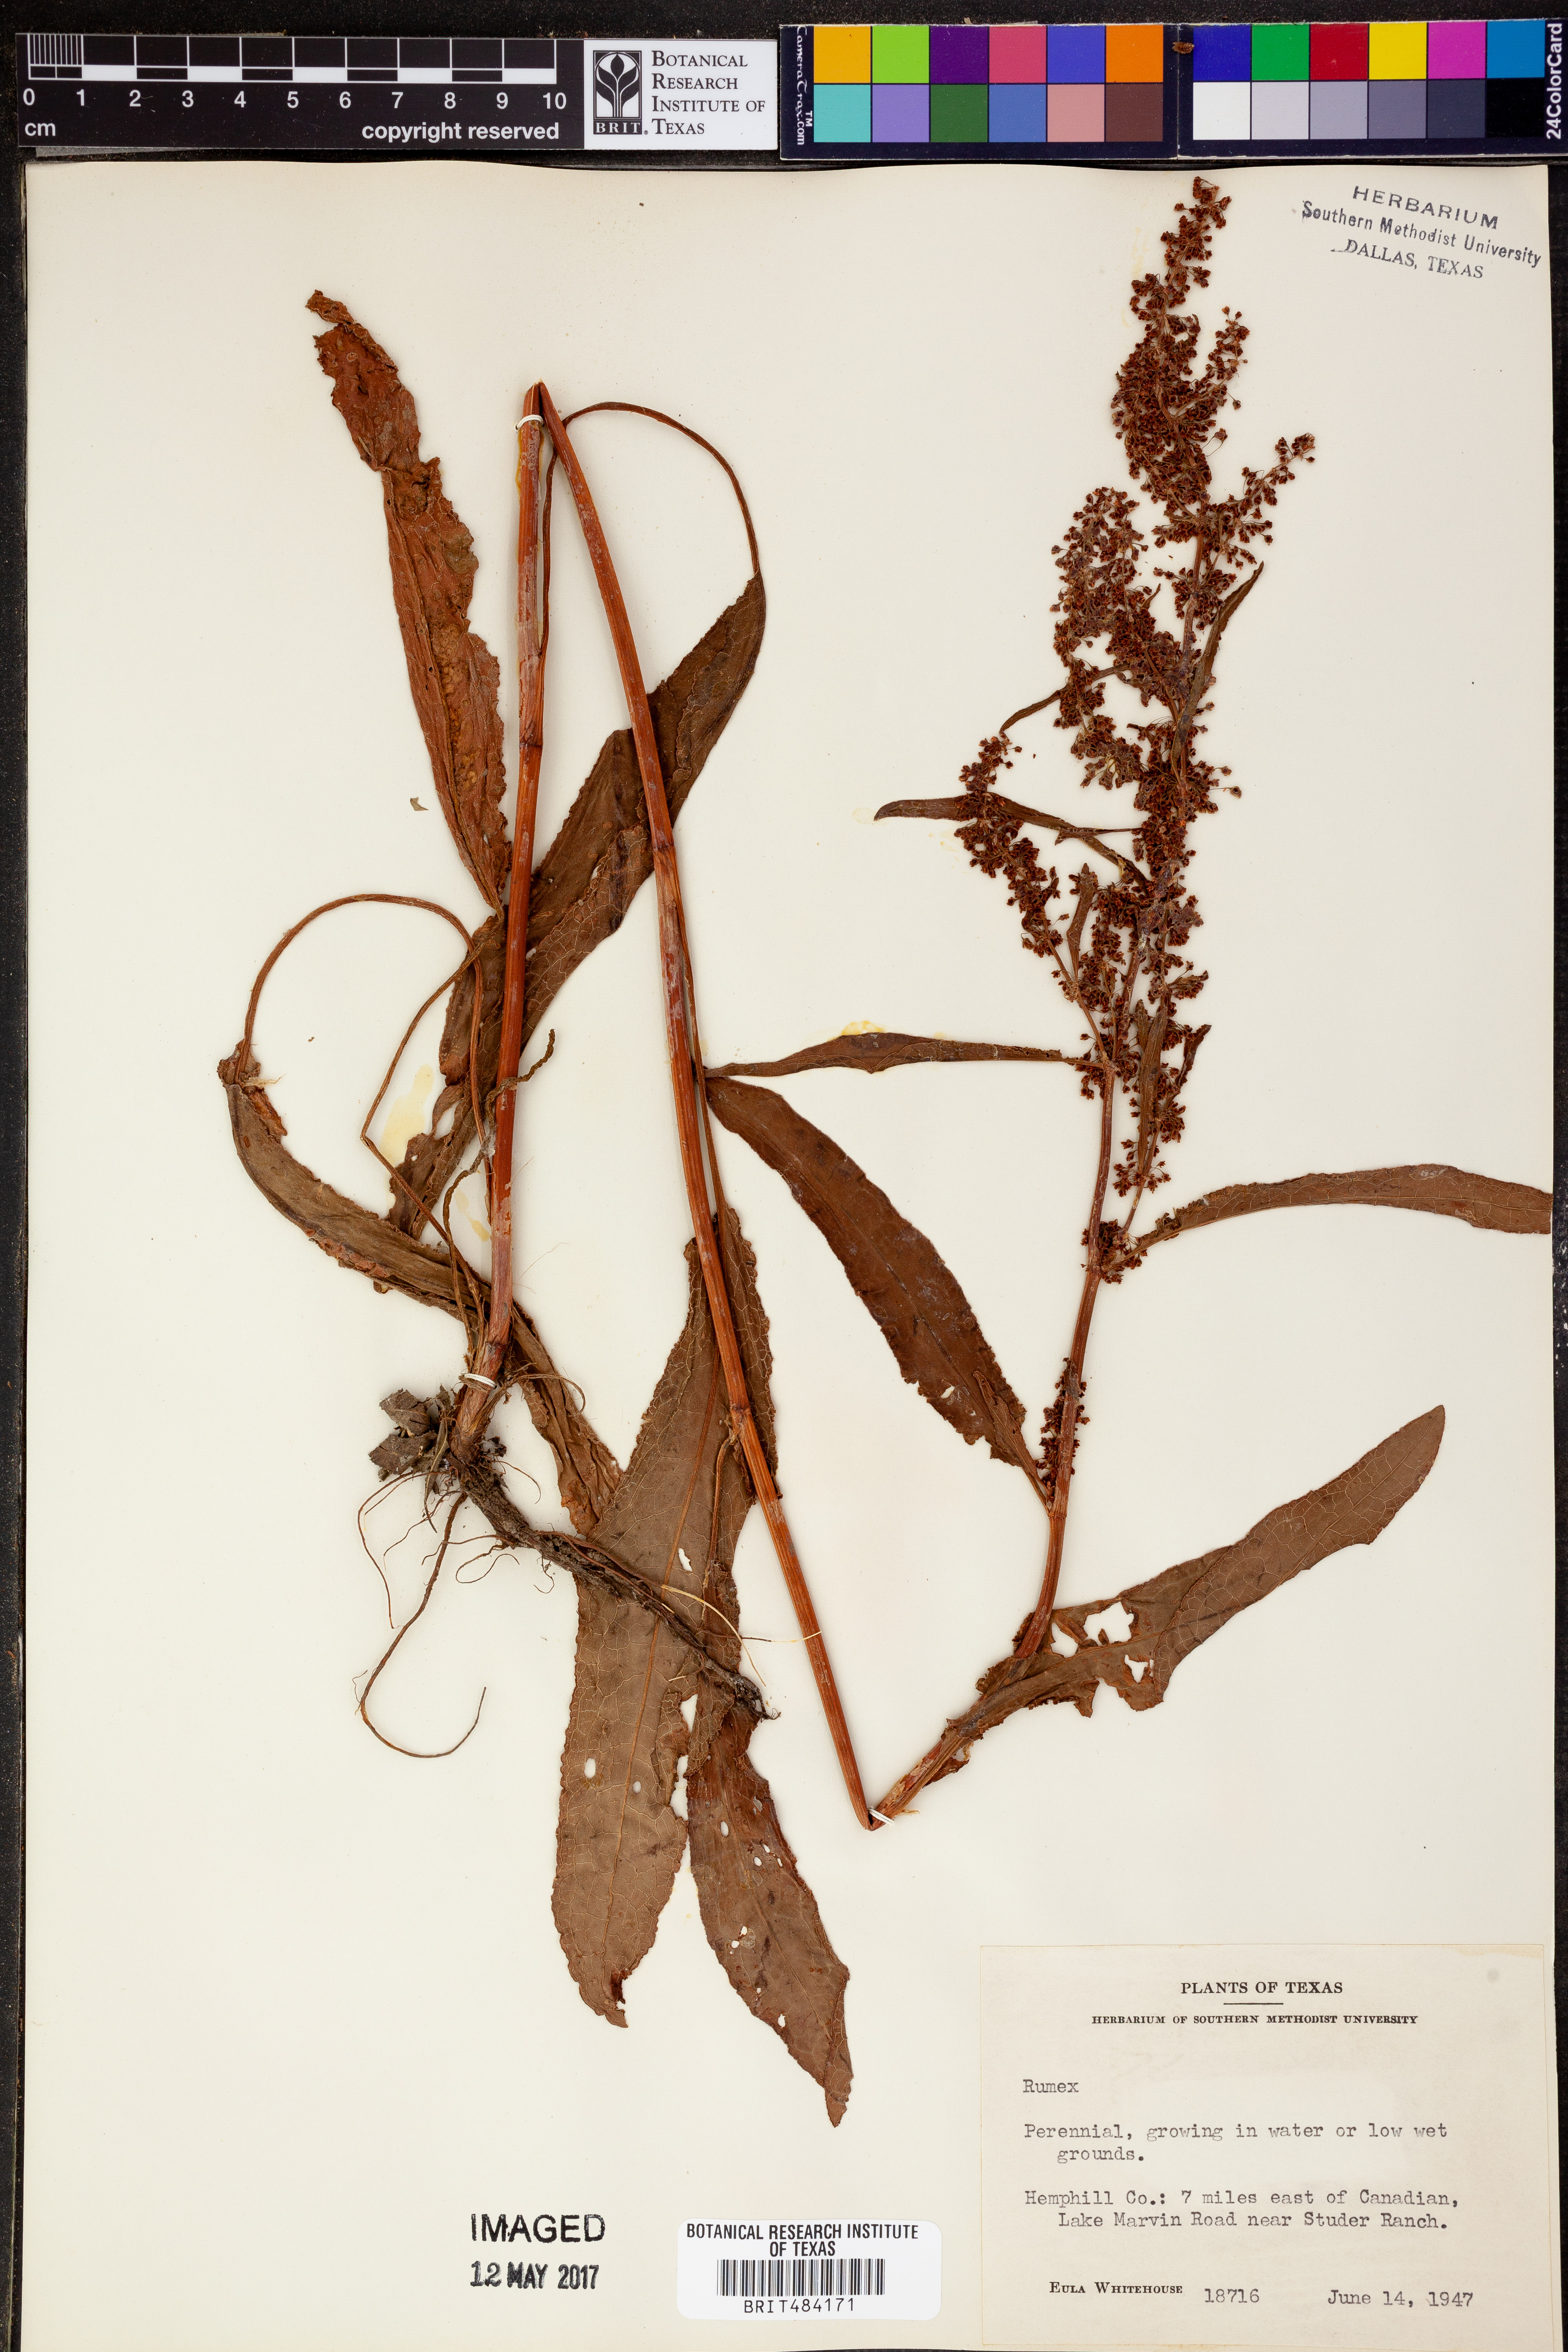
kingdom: Plantae
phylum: Tracheophyta
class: Magnoliopsida
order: Caryophyllales
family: Polygonaceae
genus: Rumex
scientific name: Rumex
